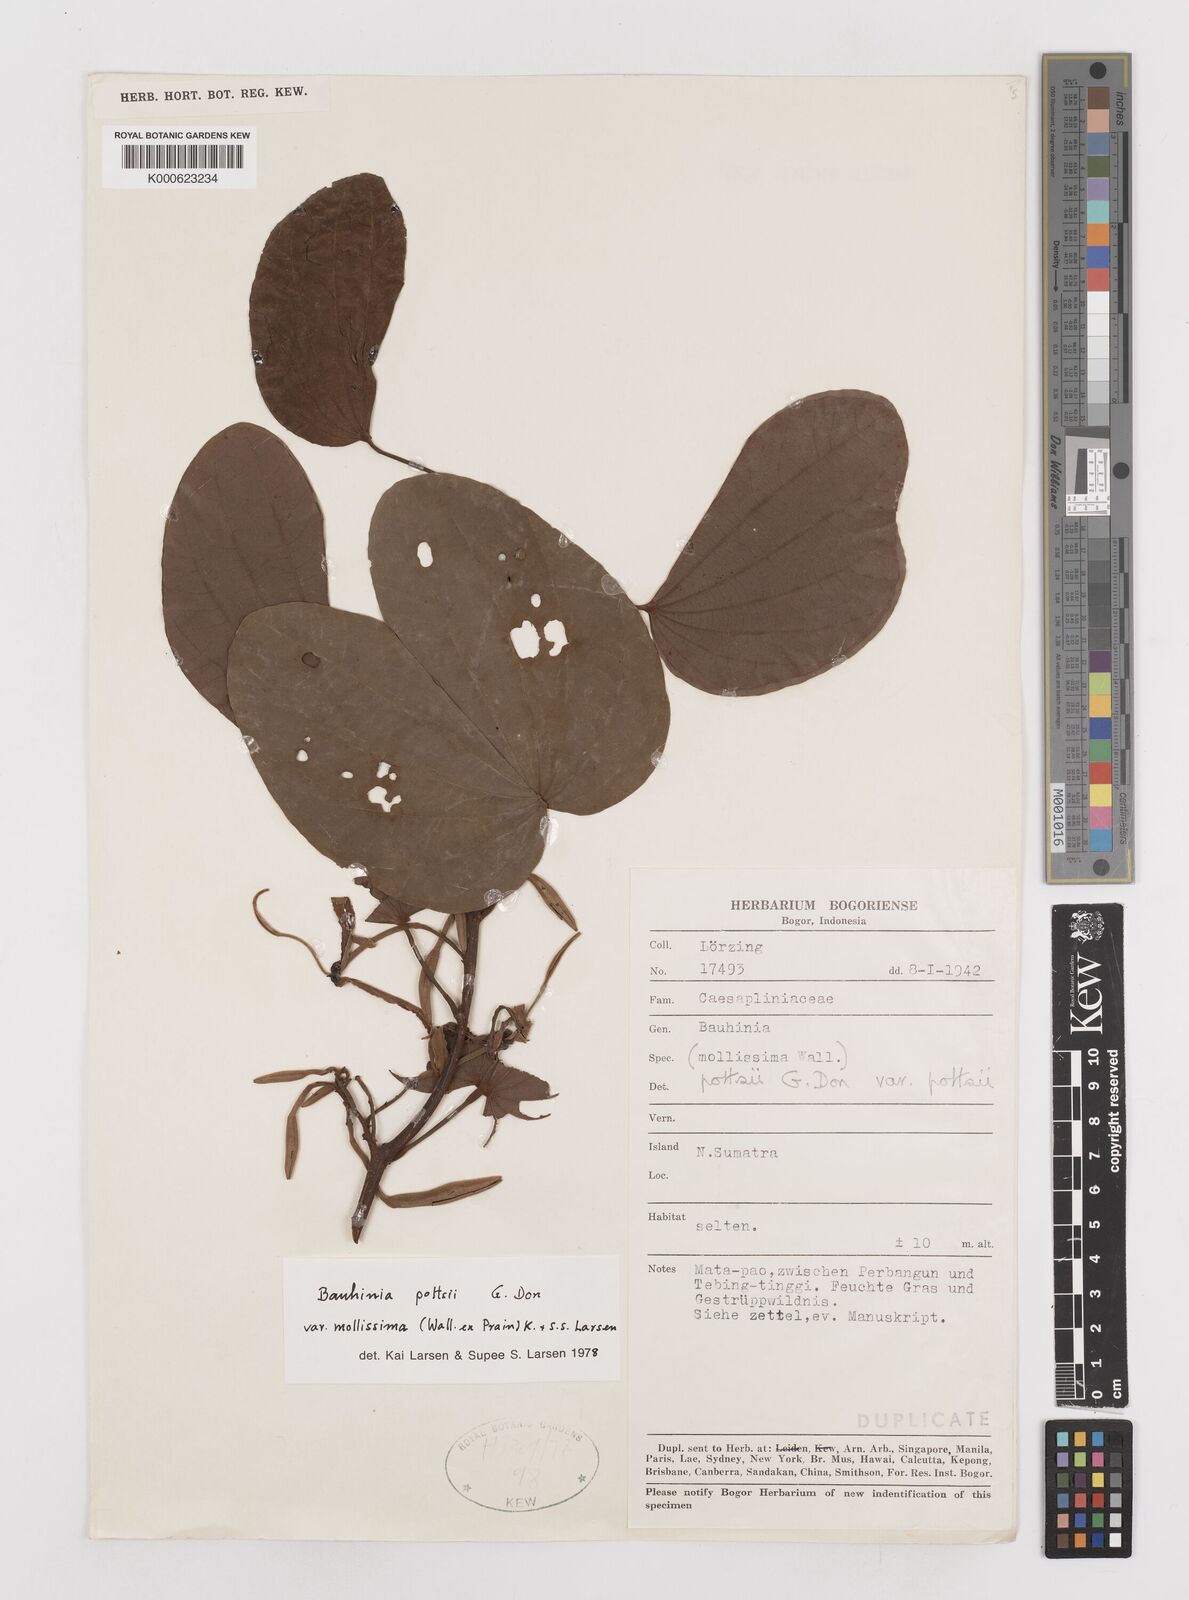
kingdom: Plantae
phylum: Tracheophyta
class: Magnoliopsida
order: Fabales
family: Fabaceae
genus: Bauhinia
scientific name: Bauhinia pottsii
